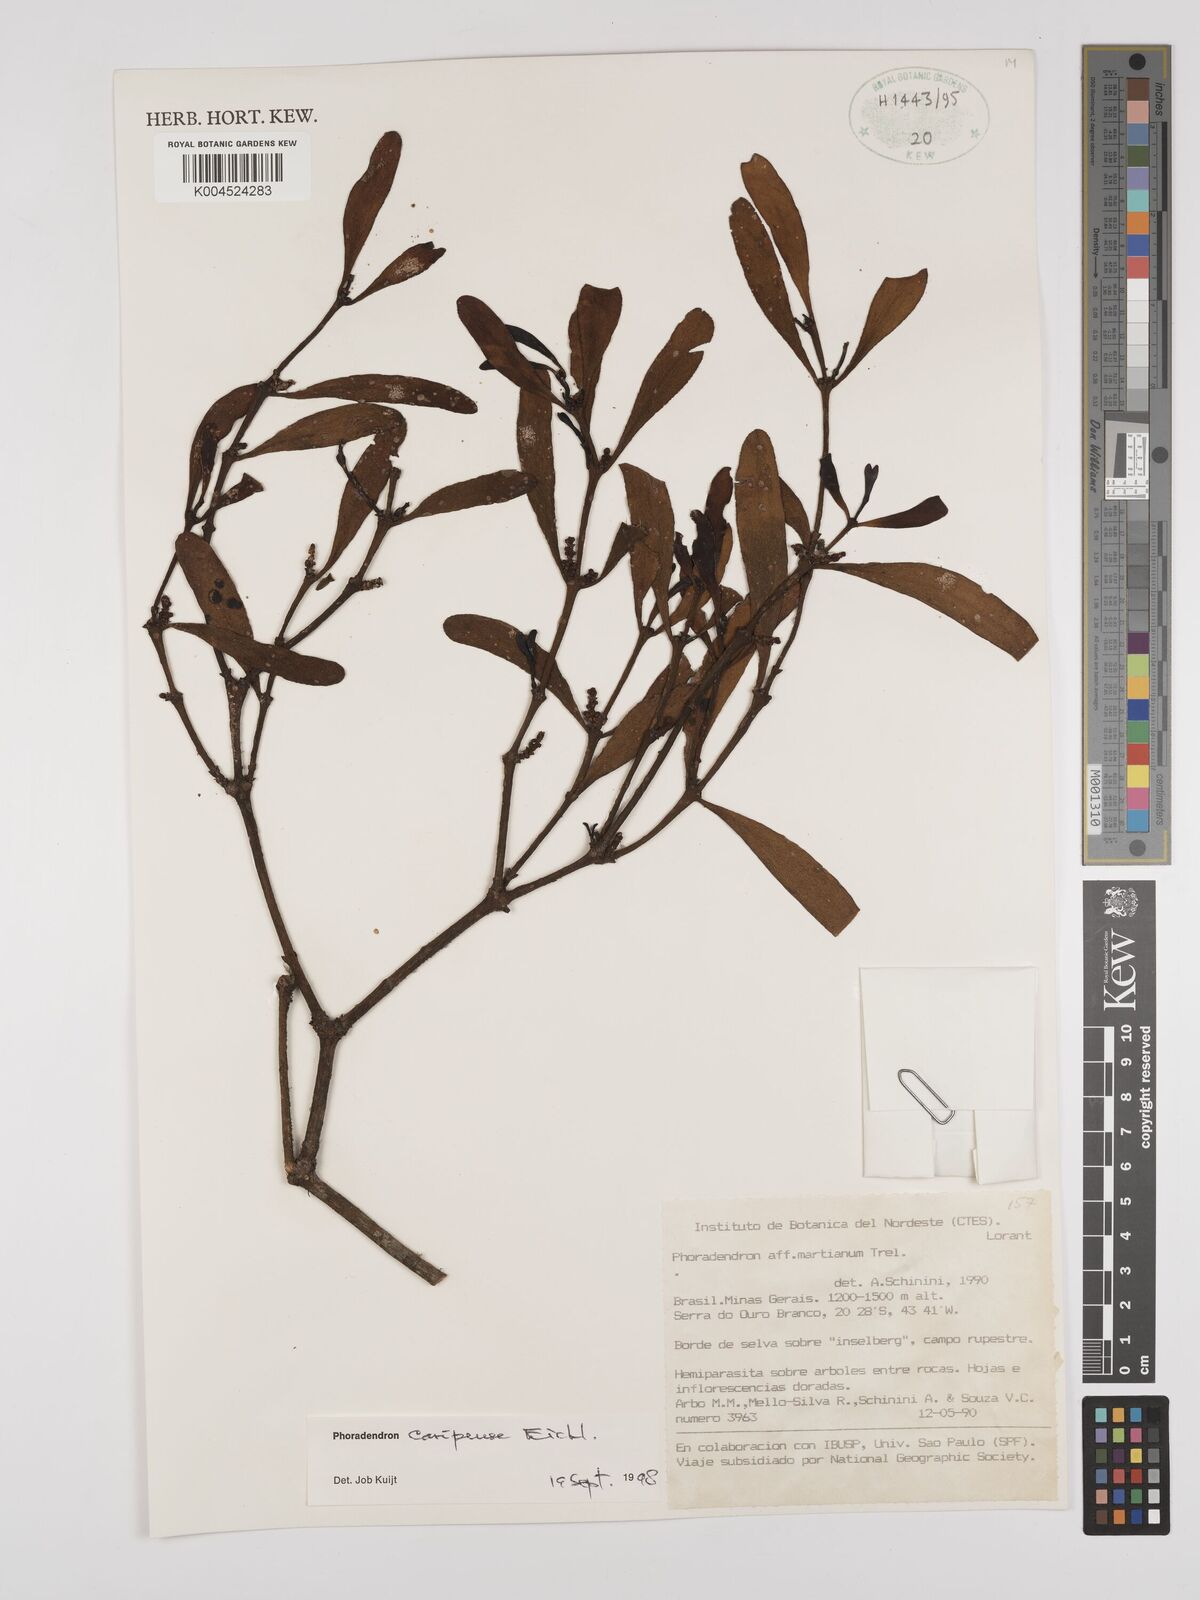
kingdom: Plantae
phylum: Tracheophyta
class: Magnoliopsida
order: Santalales
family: Viscaceae
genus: Phoradendron
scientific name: Phoradendron caripense
